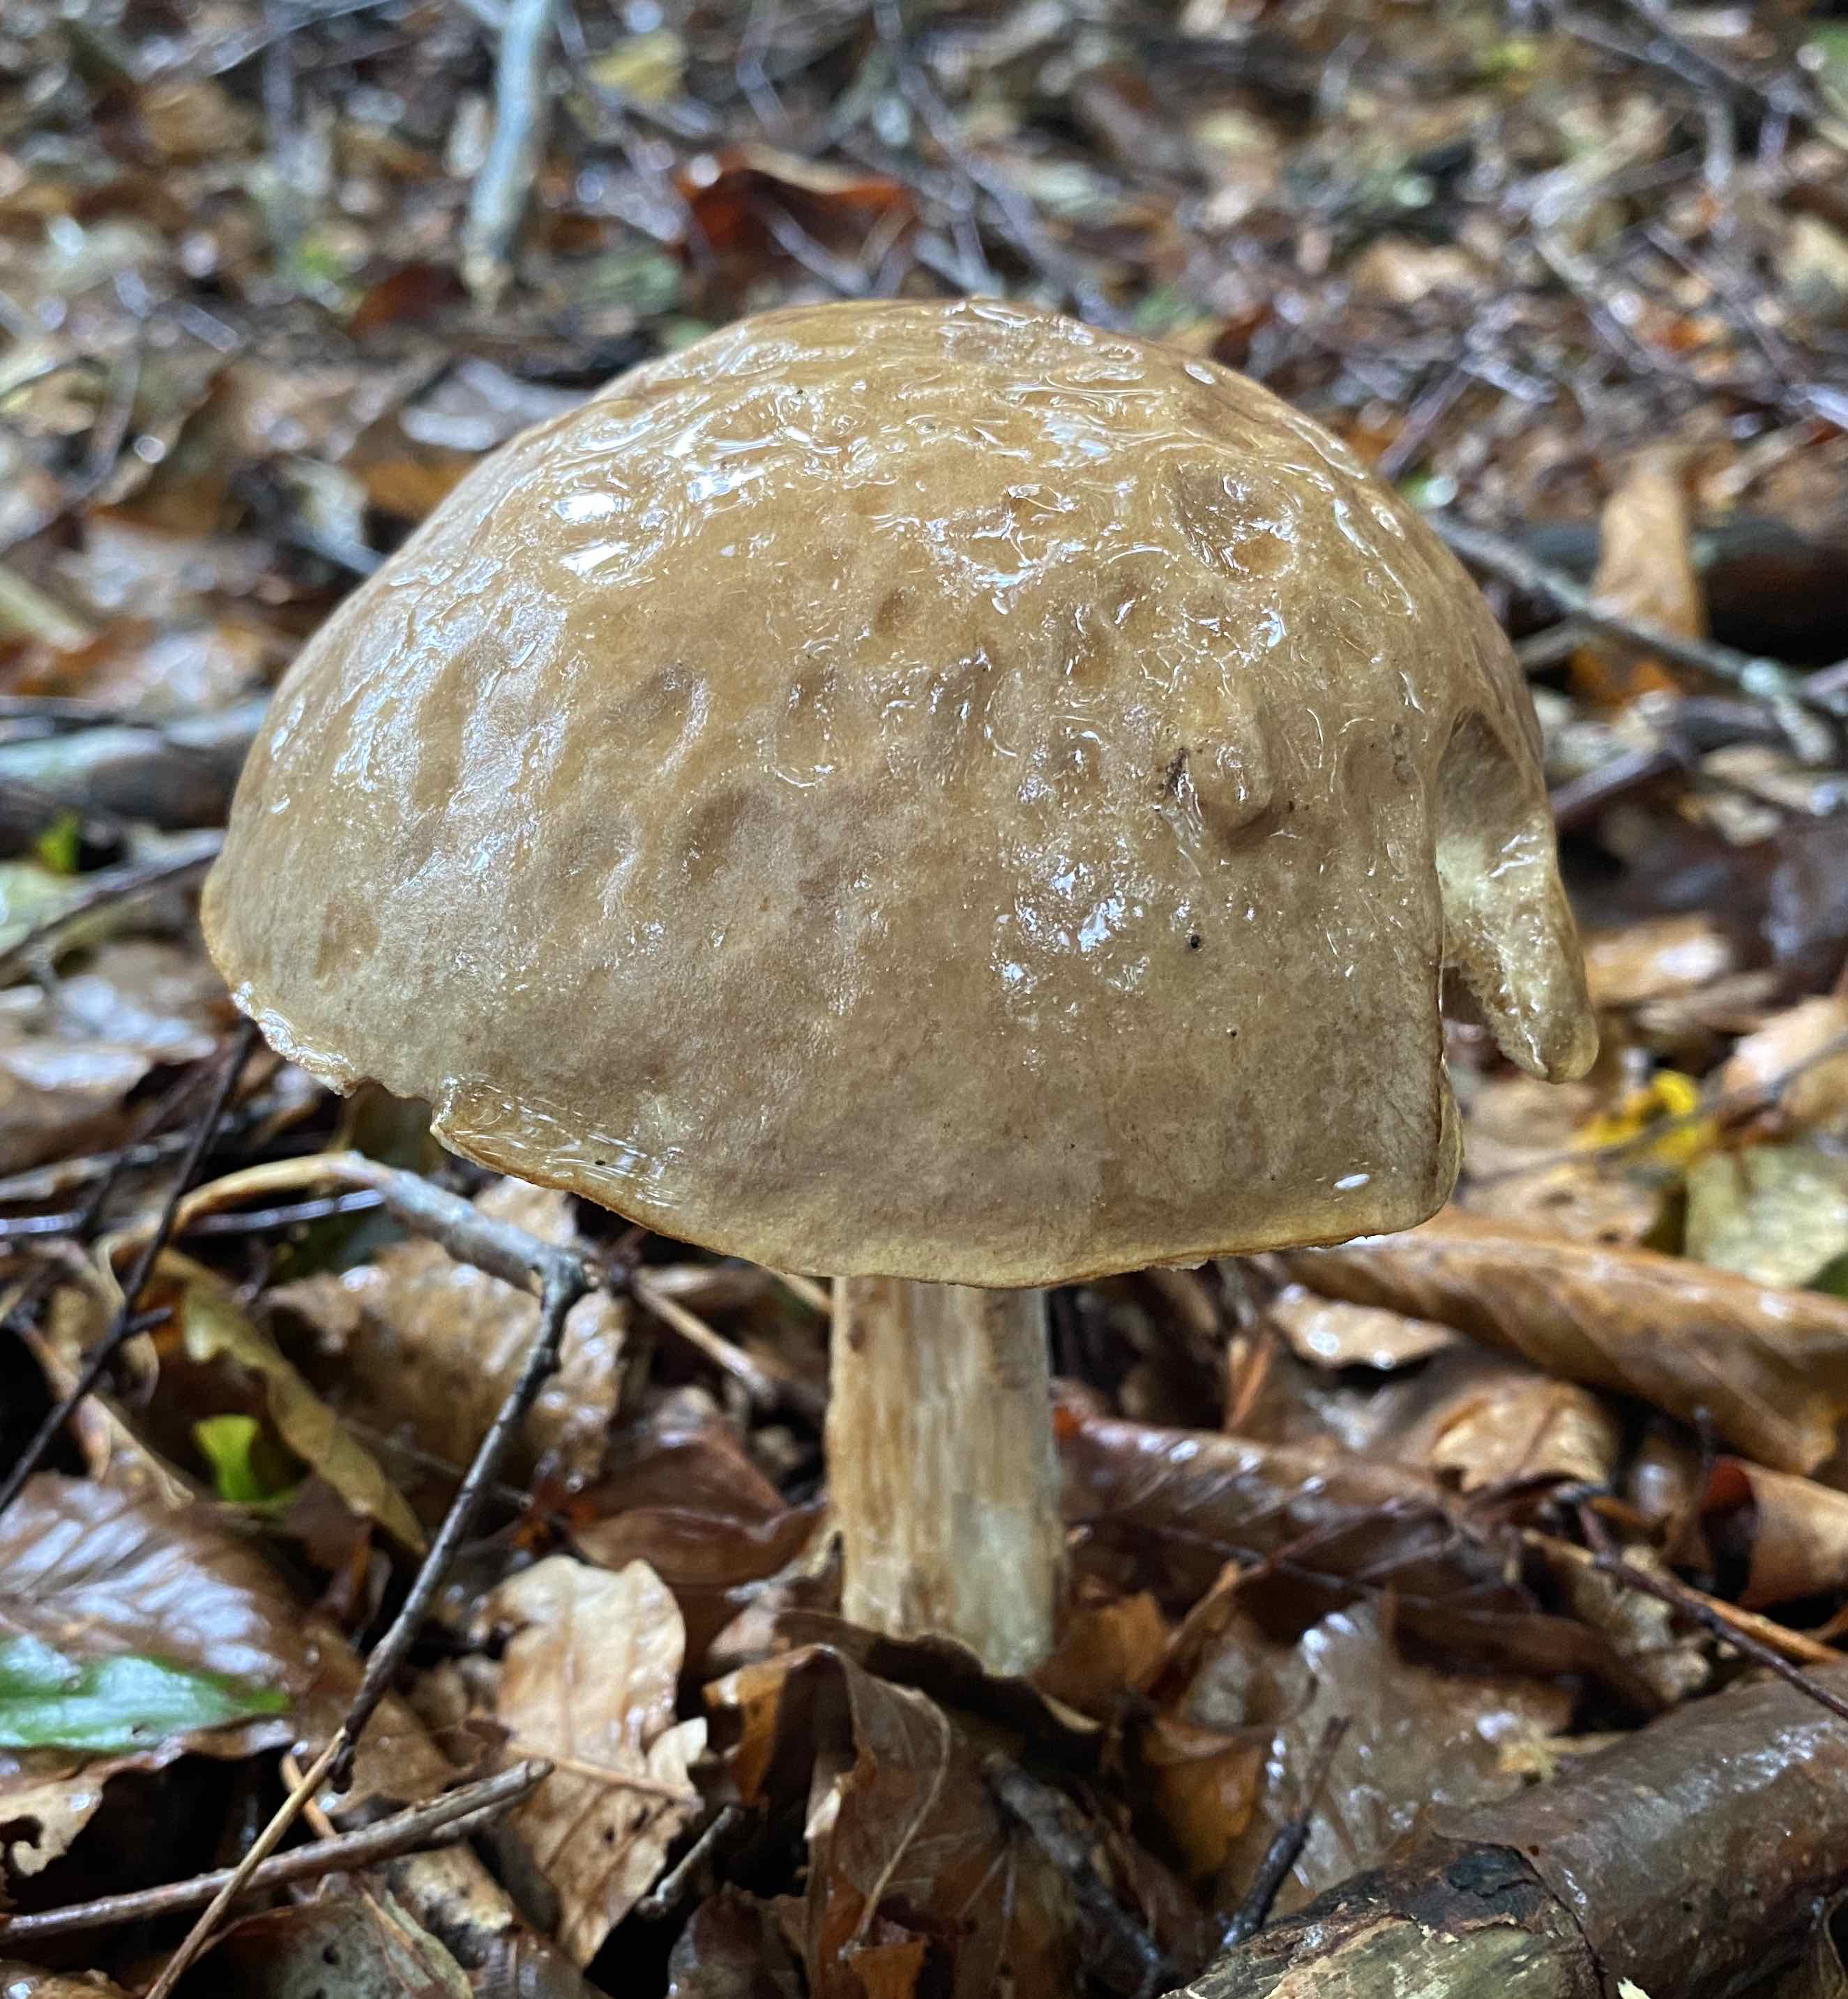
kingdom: Fungi
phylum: Basidiomycota
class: Agaricomycetes
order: Boletales
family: Boletaceae
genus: Leccinum
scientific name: Leccinum scabrum
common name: brun skælrørhat
